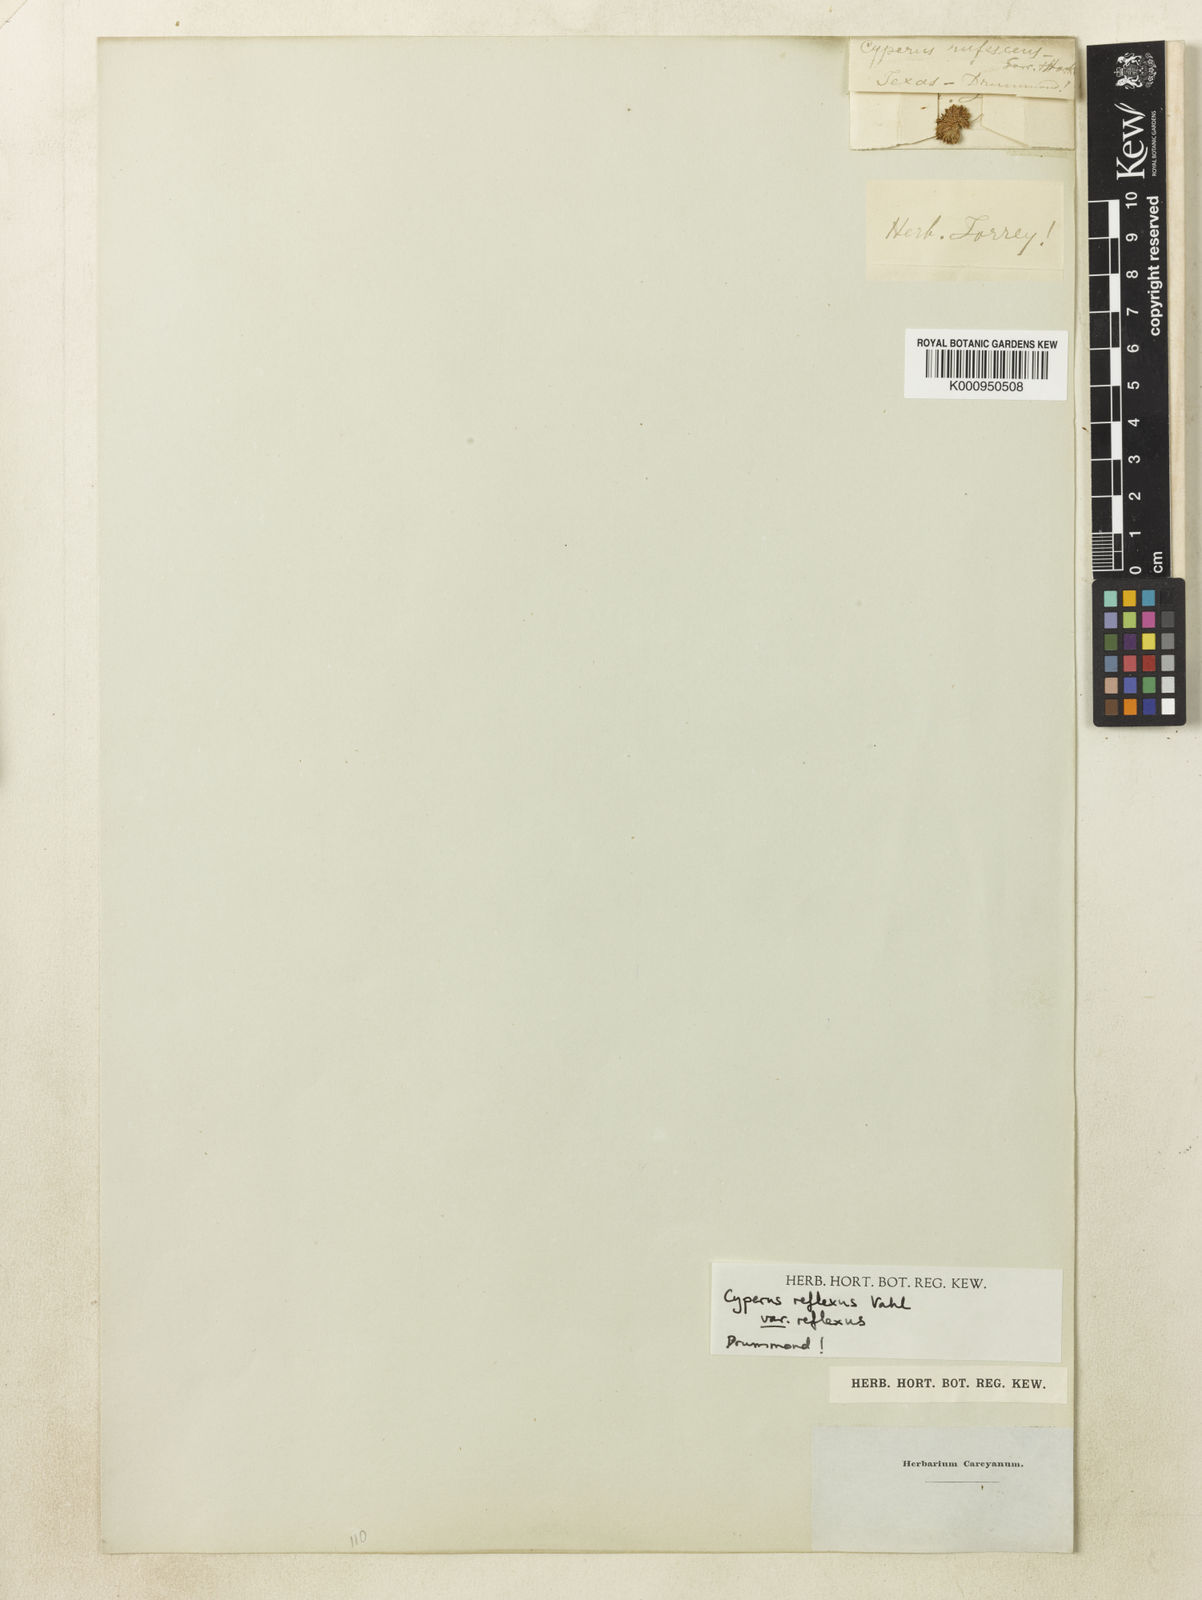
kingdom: Plantae
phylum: Tracheophyta
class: Liliopsida
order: Poales
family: Cyperaceae
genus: Cyperus
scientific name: Cyperus reflexus
